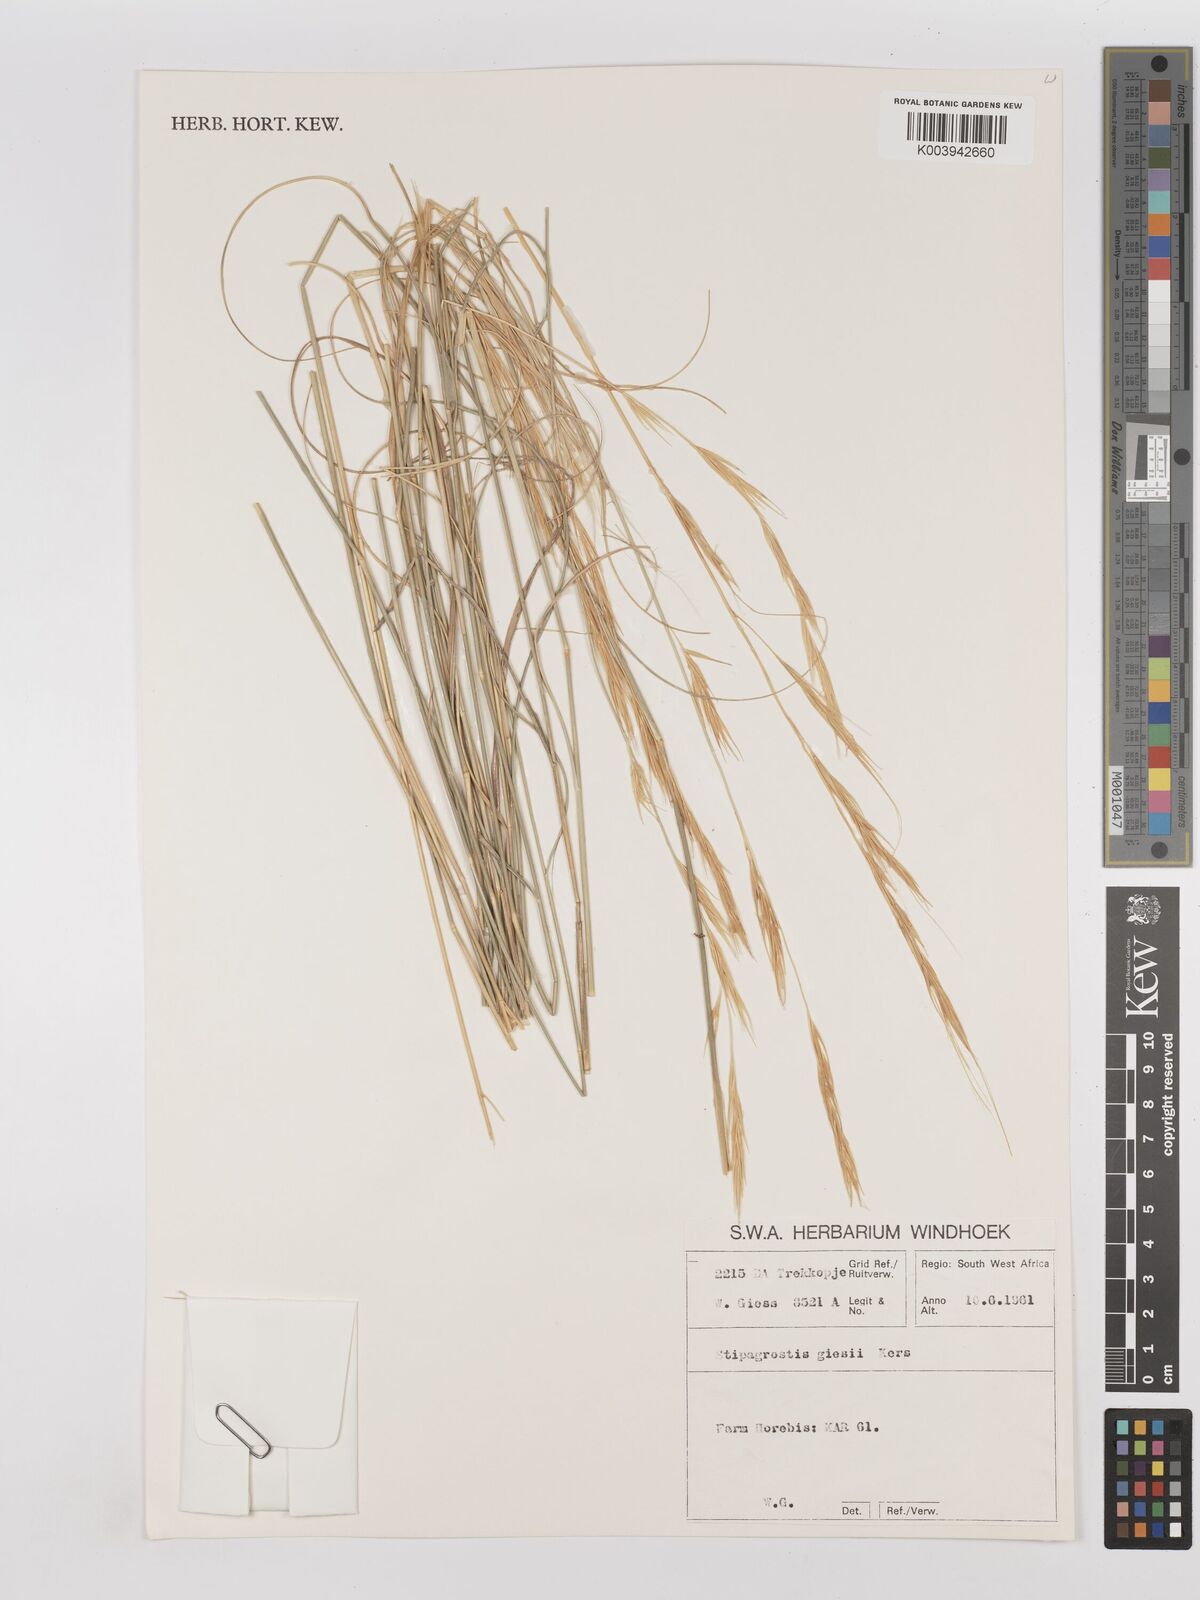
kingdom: Plantae
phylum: Tracheophyta
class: Liliopsida
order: Poales
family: Poaceae
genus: Stipagrostis
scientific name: Stipagrostis giessii
